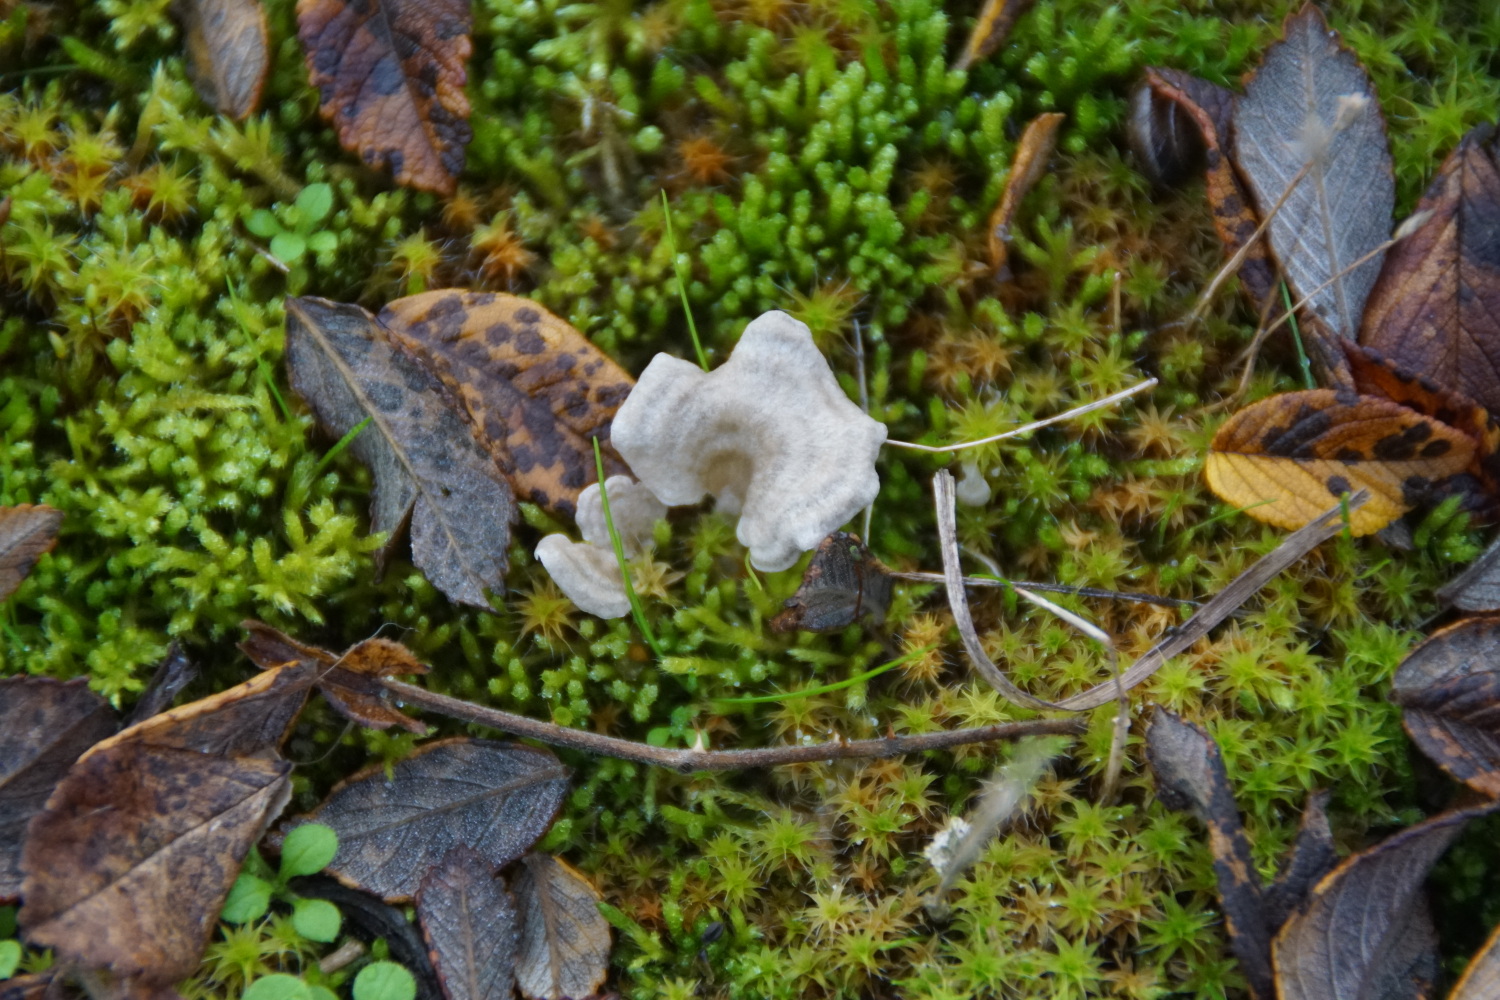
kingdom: Fungi
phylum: Basidiomycota
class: Agaricomycetes
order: Agaricales
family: Hygrophoraceae
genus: Arrhenia
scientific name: Arrhenia spathulata
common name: skæv fontænehat
